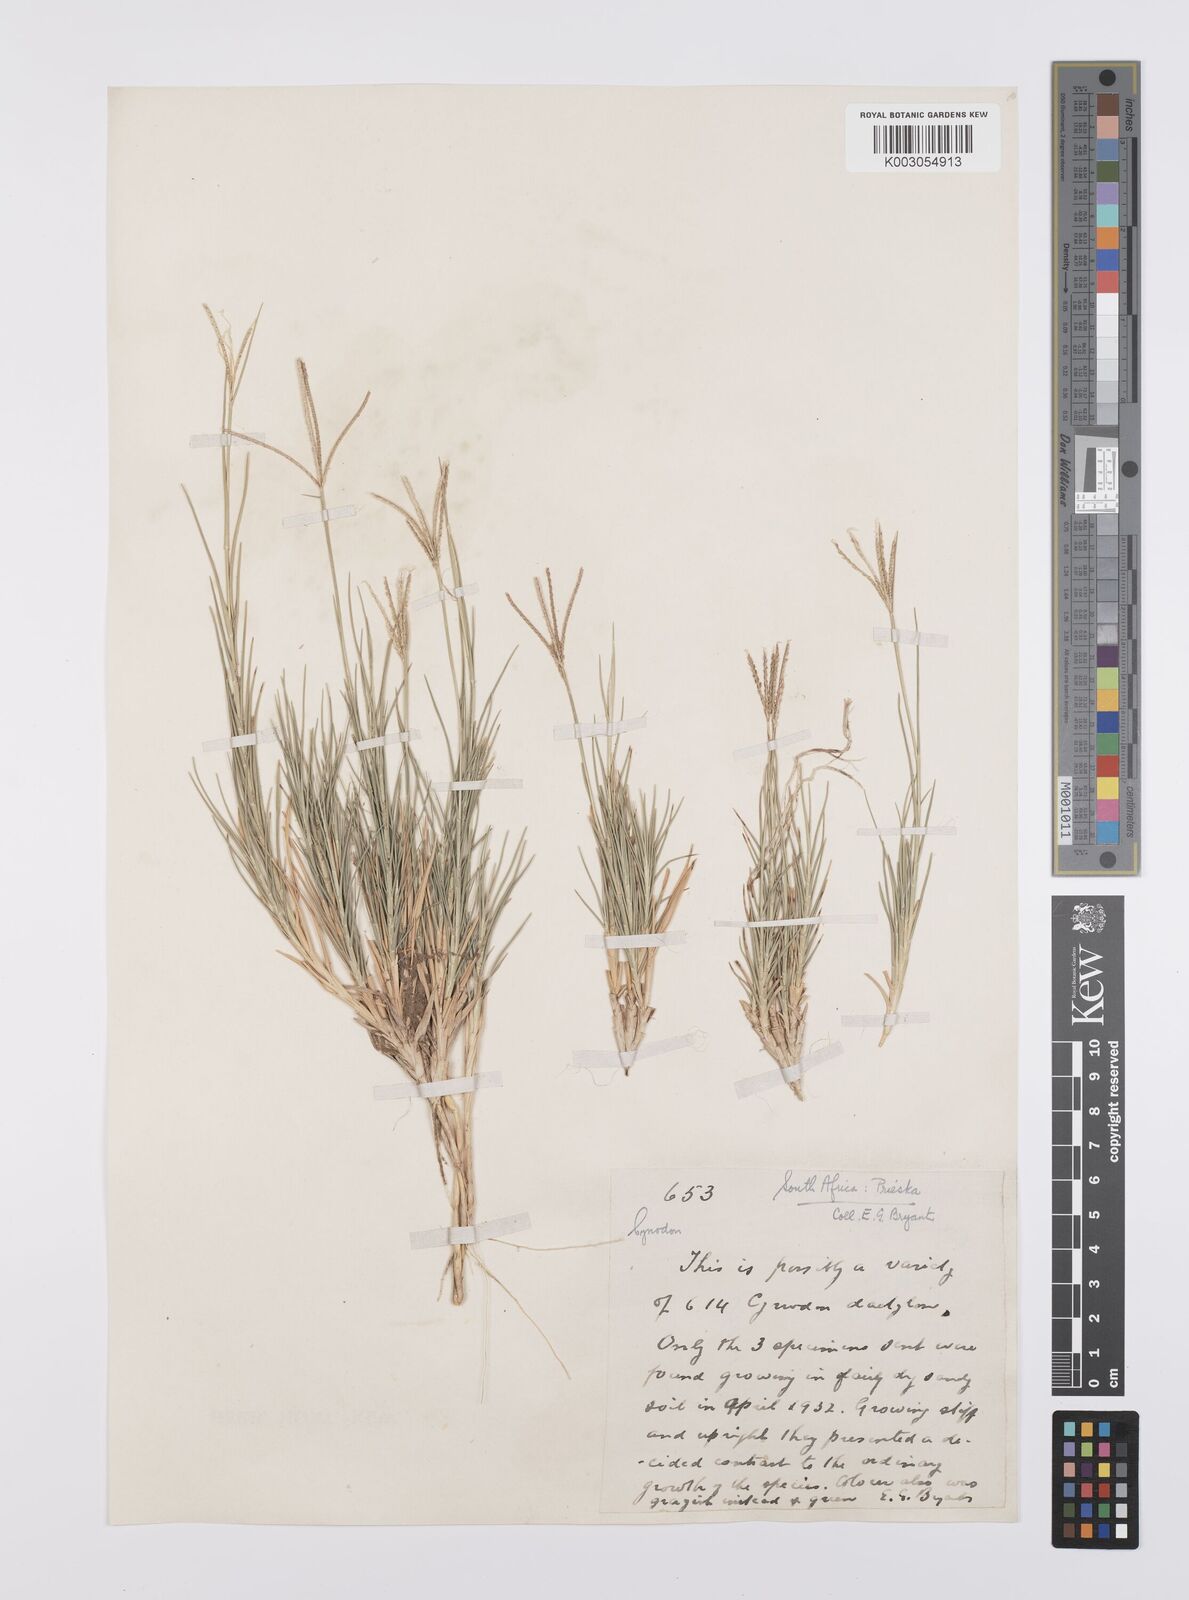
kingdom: Plantae
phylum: Tracheophyta
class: Liliopsida
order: Poales
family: Poaceae
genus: Cynodon
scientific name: Cynodon dactylon
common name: Bermuda grass
